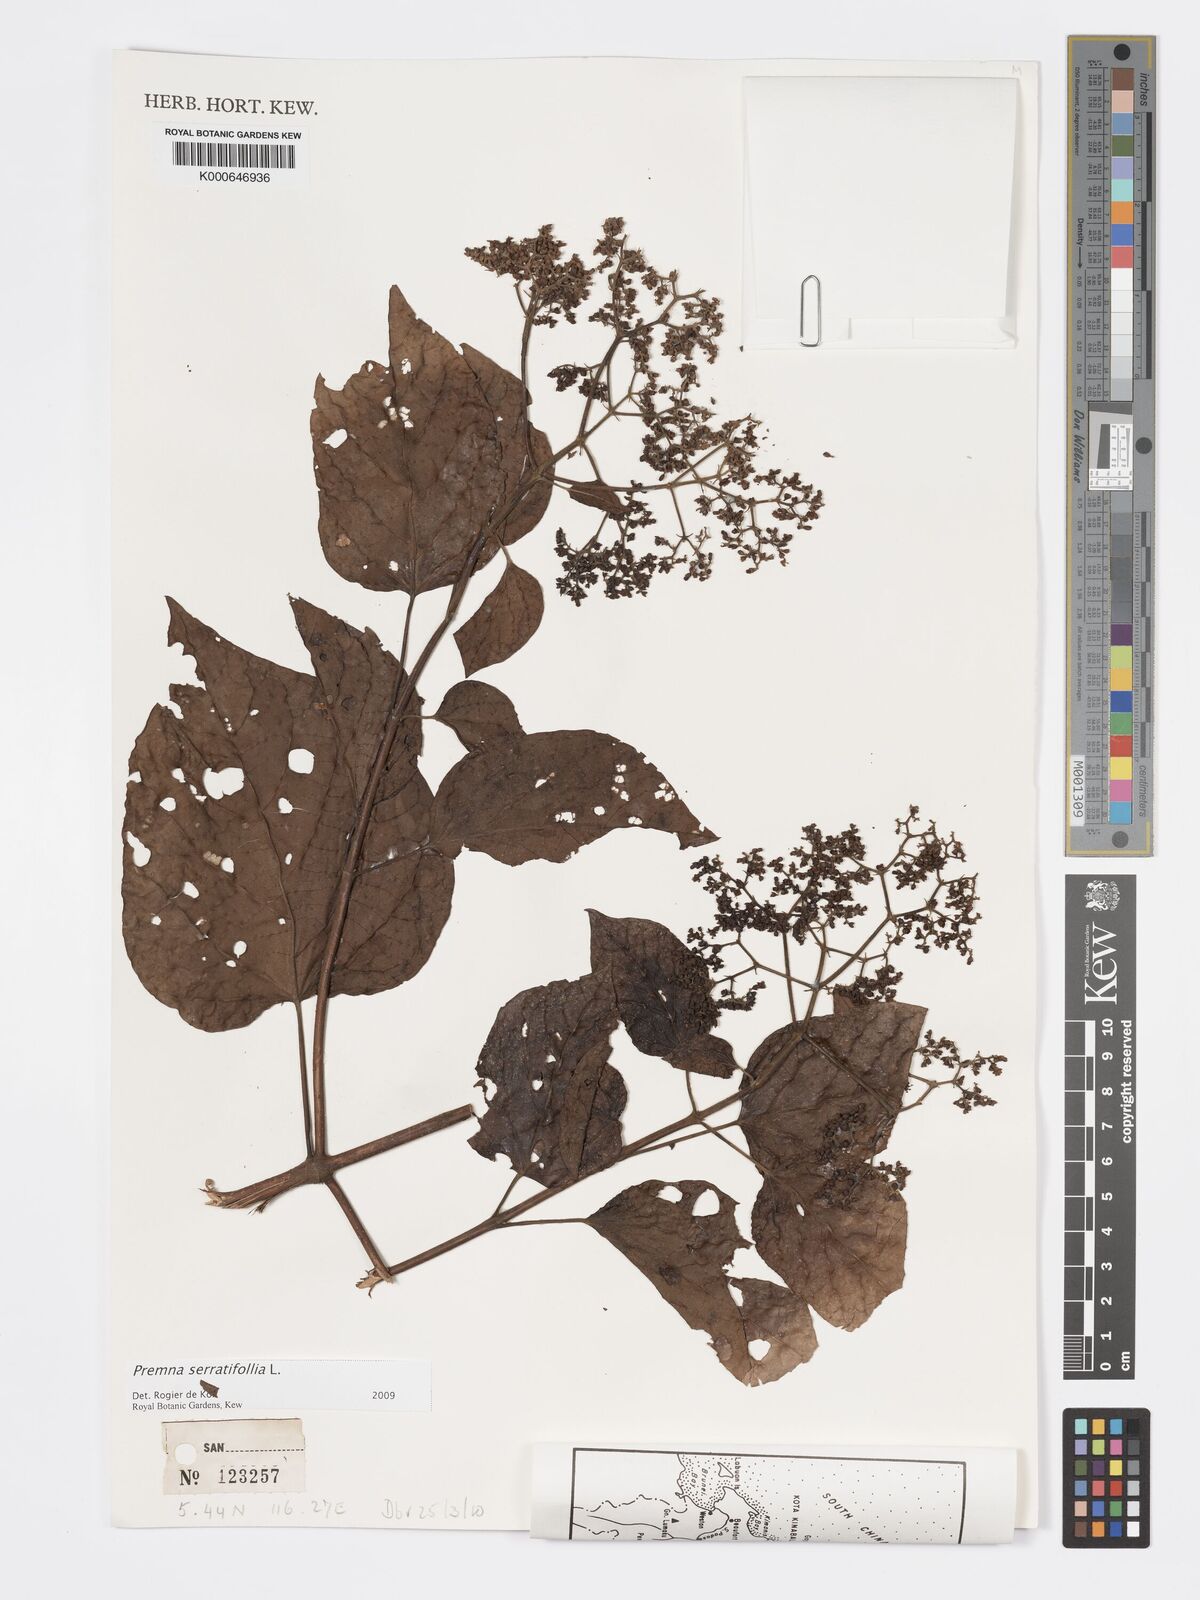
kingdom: Plantae
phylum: Tracheophyta
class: Magnoliopsida
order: Lamiales
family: Lamiaceae
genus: Premna
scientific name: Premna serratifolia
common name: Bastard guelder
